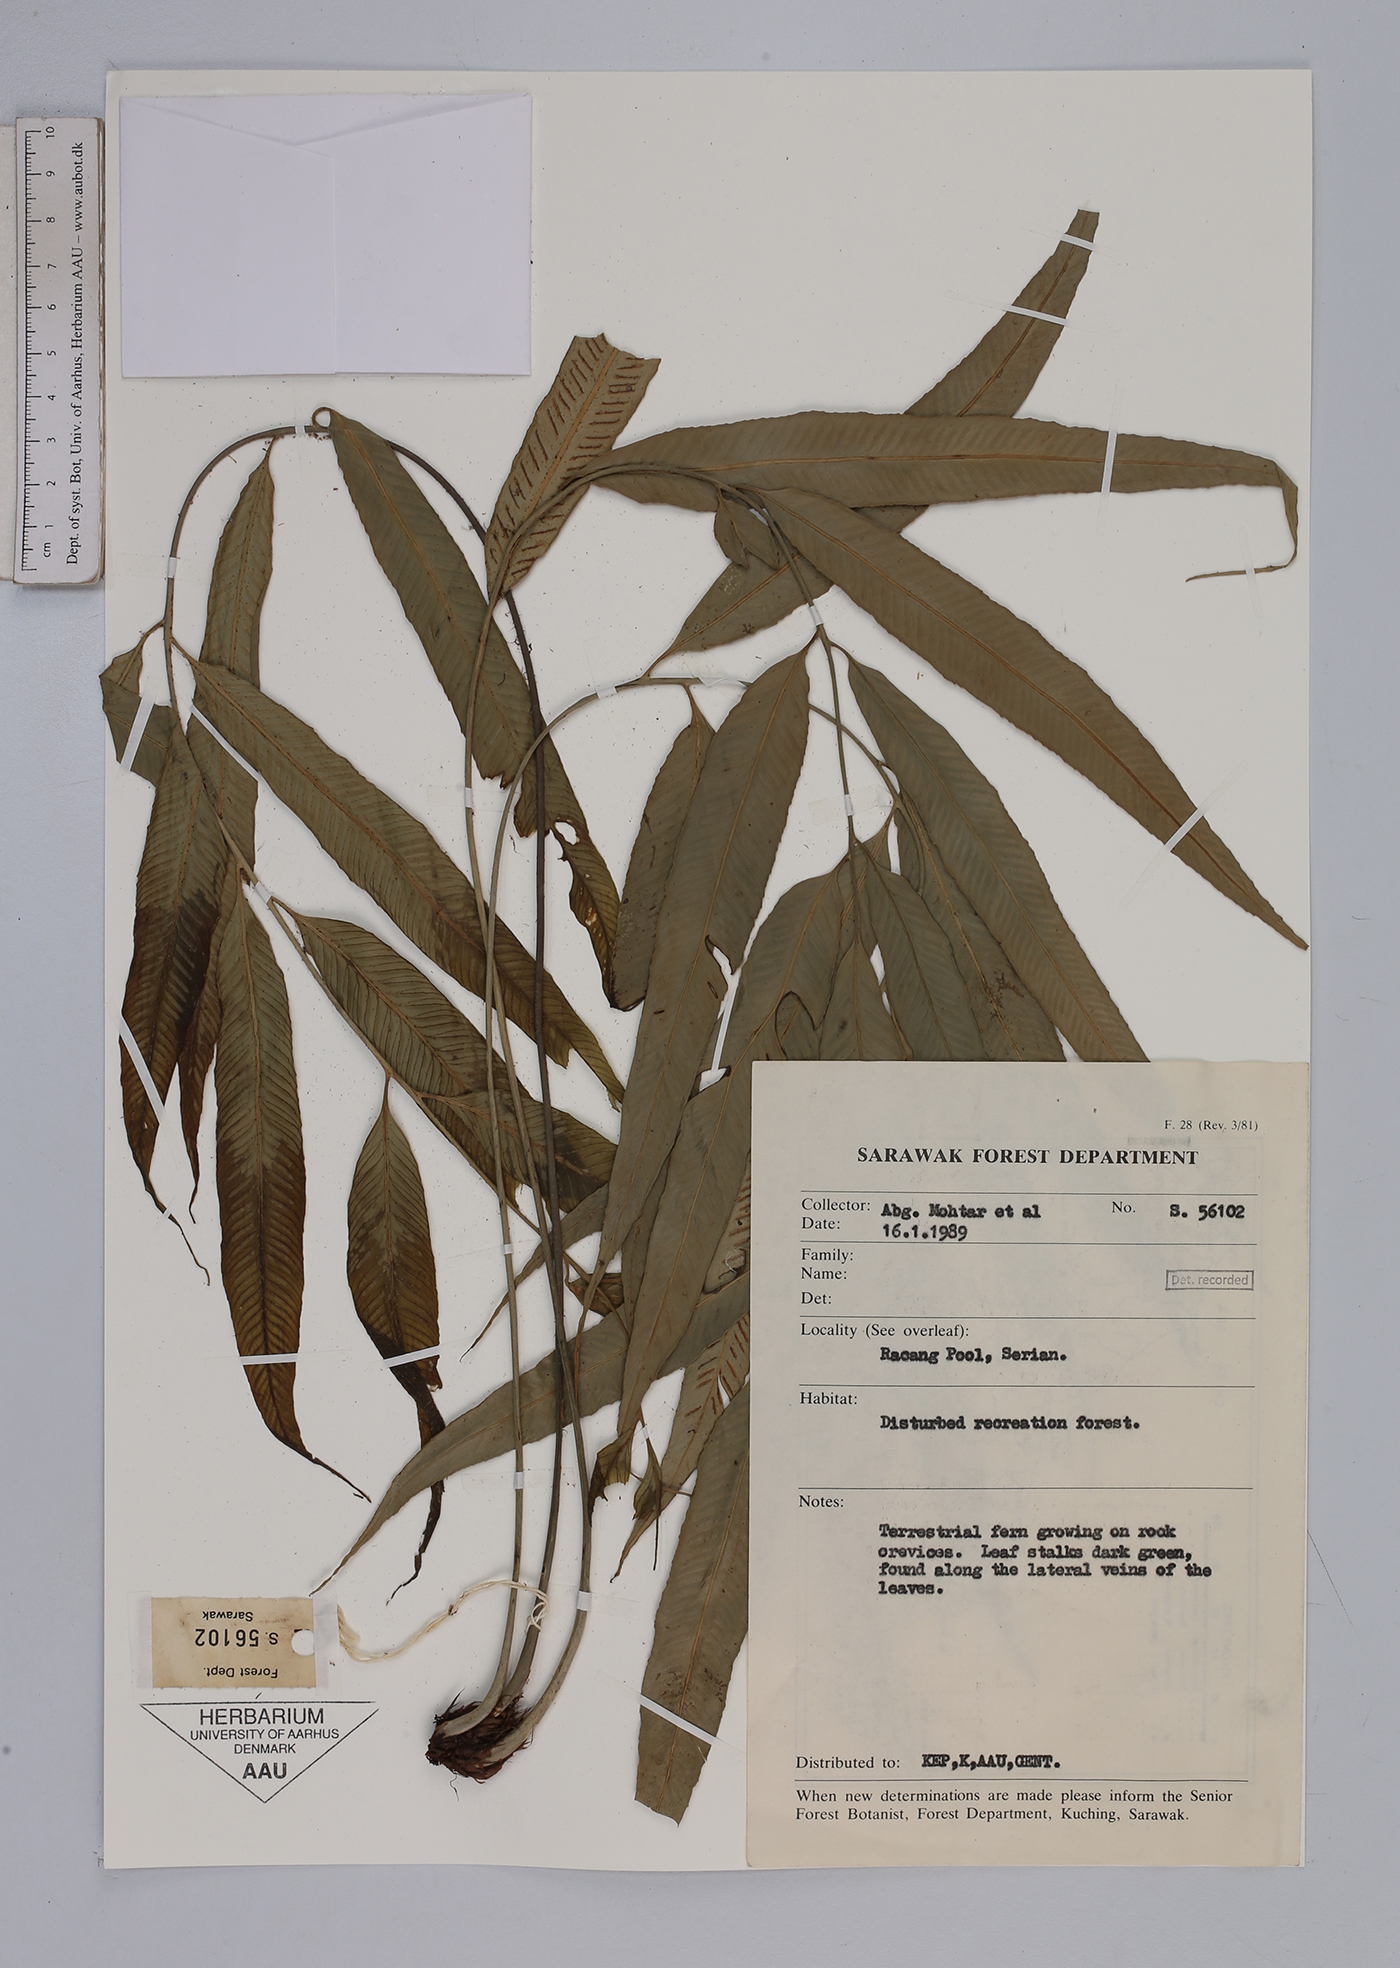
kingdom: Plantae
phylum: Tracheophyta
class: Polypodiopsida
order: Polypodiales
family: Aspleniaceae
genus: Asplenium
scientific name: Asplenium salignum
